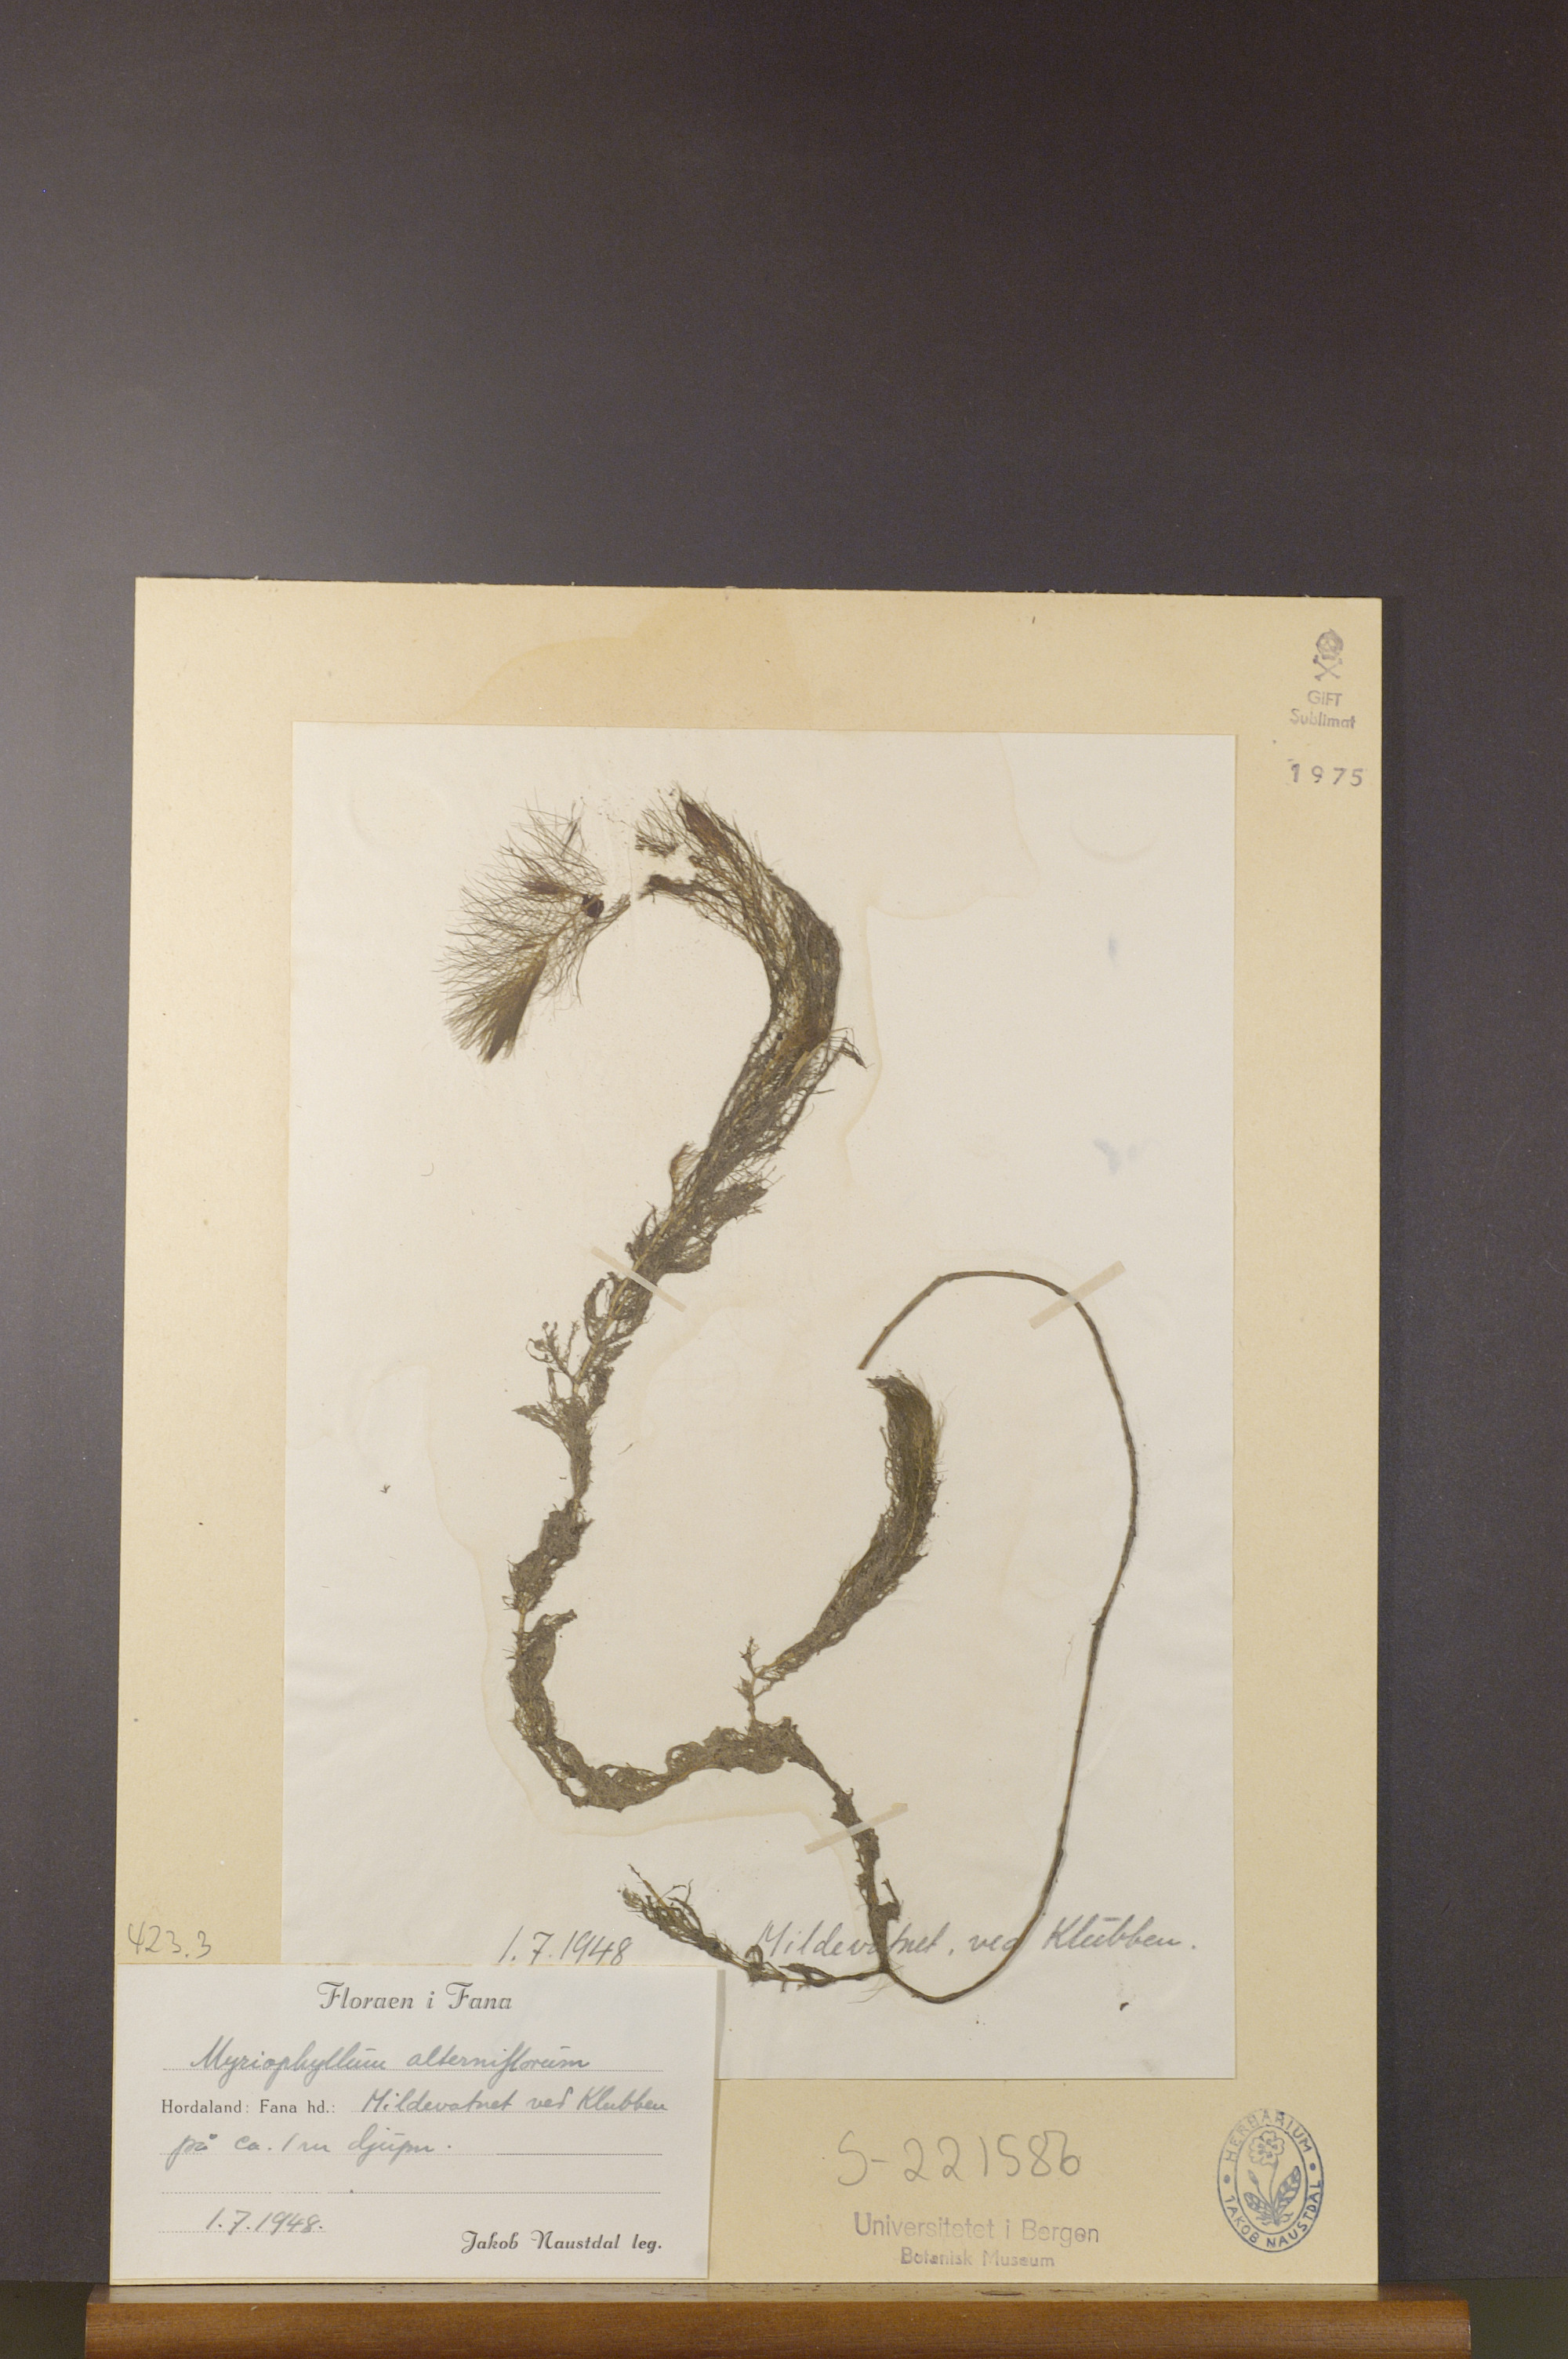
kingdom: Plantae
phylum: Tracheophyta
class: Magnoliopsida
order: Saxifragales
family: Haloragaceae
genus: Myriophyllum
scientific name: Myriophyllum alterniflorum
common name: Alternate water-milfoil
